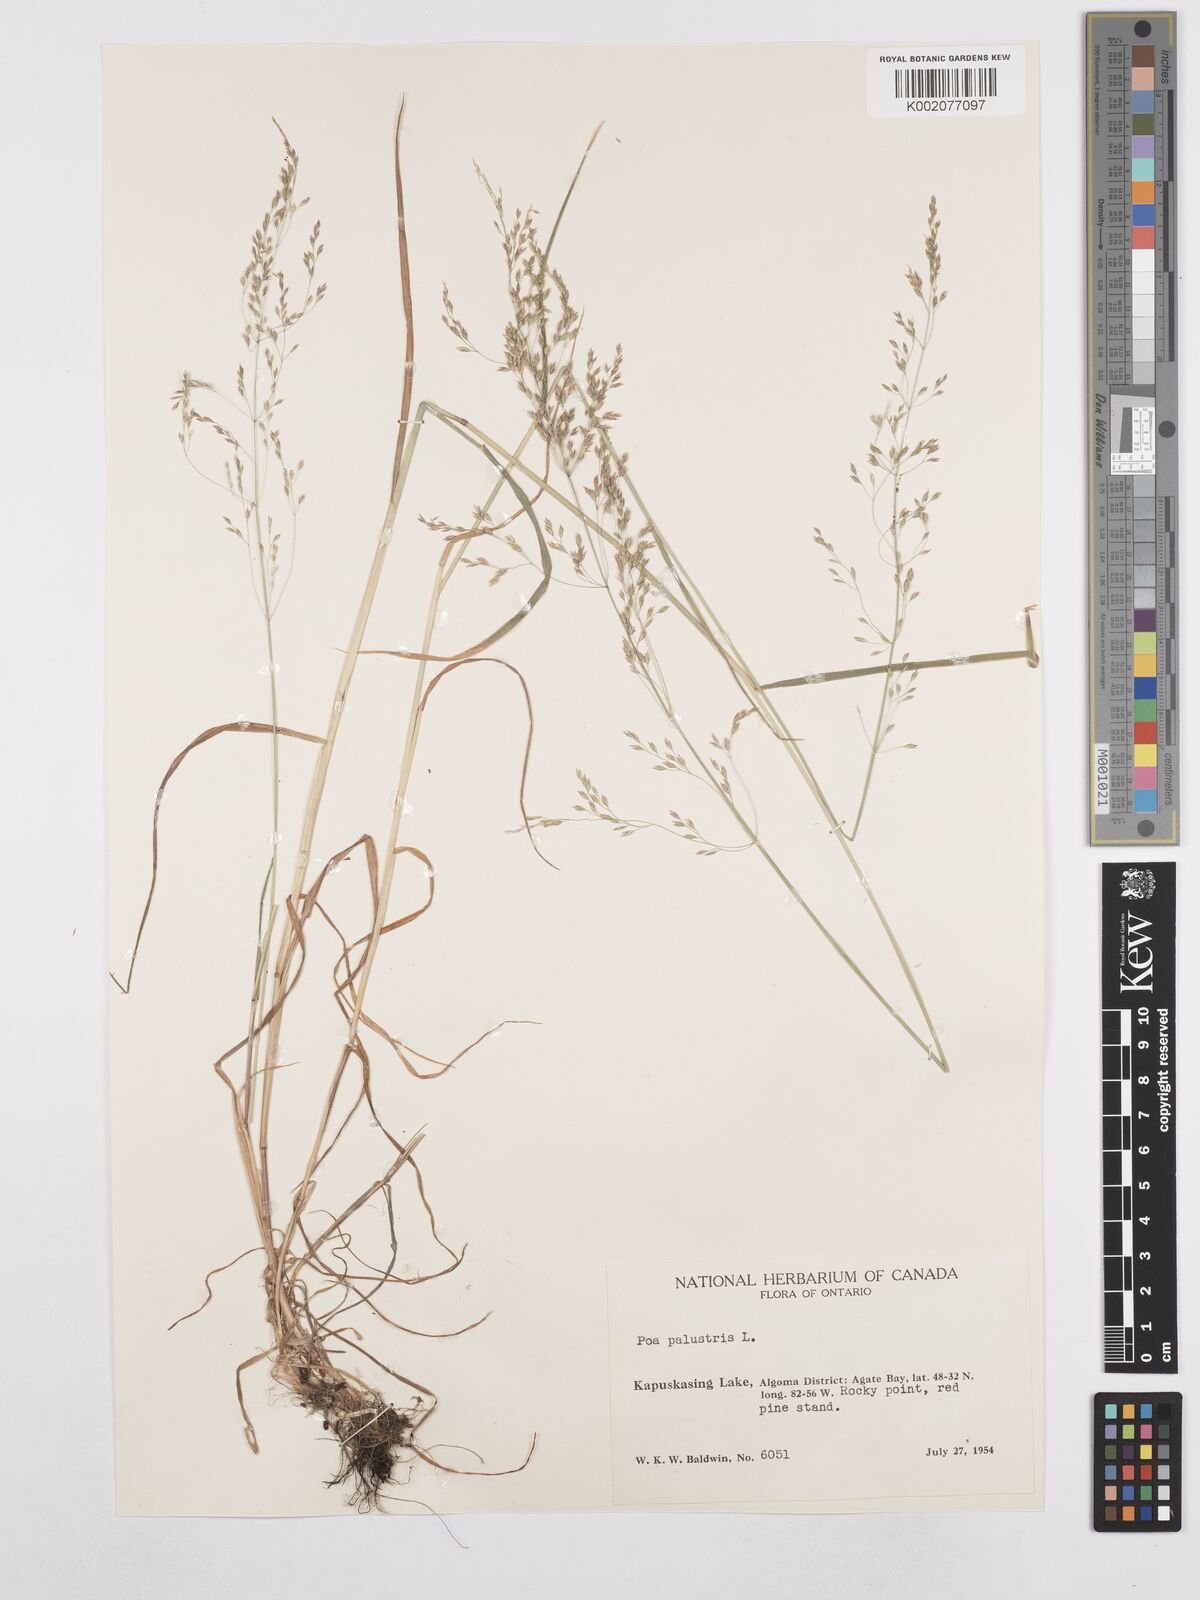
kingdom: Plantae
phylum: Tracheophyta
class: Liliopsida
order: Poales
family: Poaceae
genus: Poa
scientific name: Poa palustris
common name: Swamp meadow-grass
